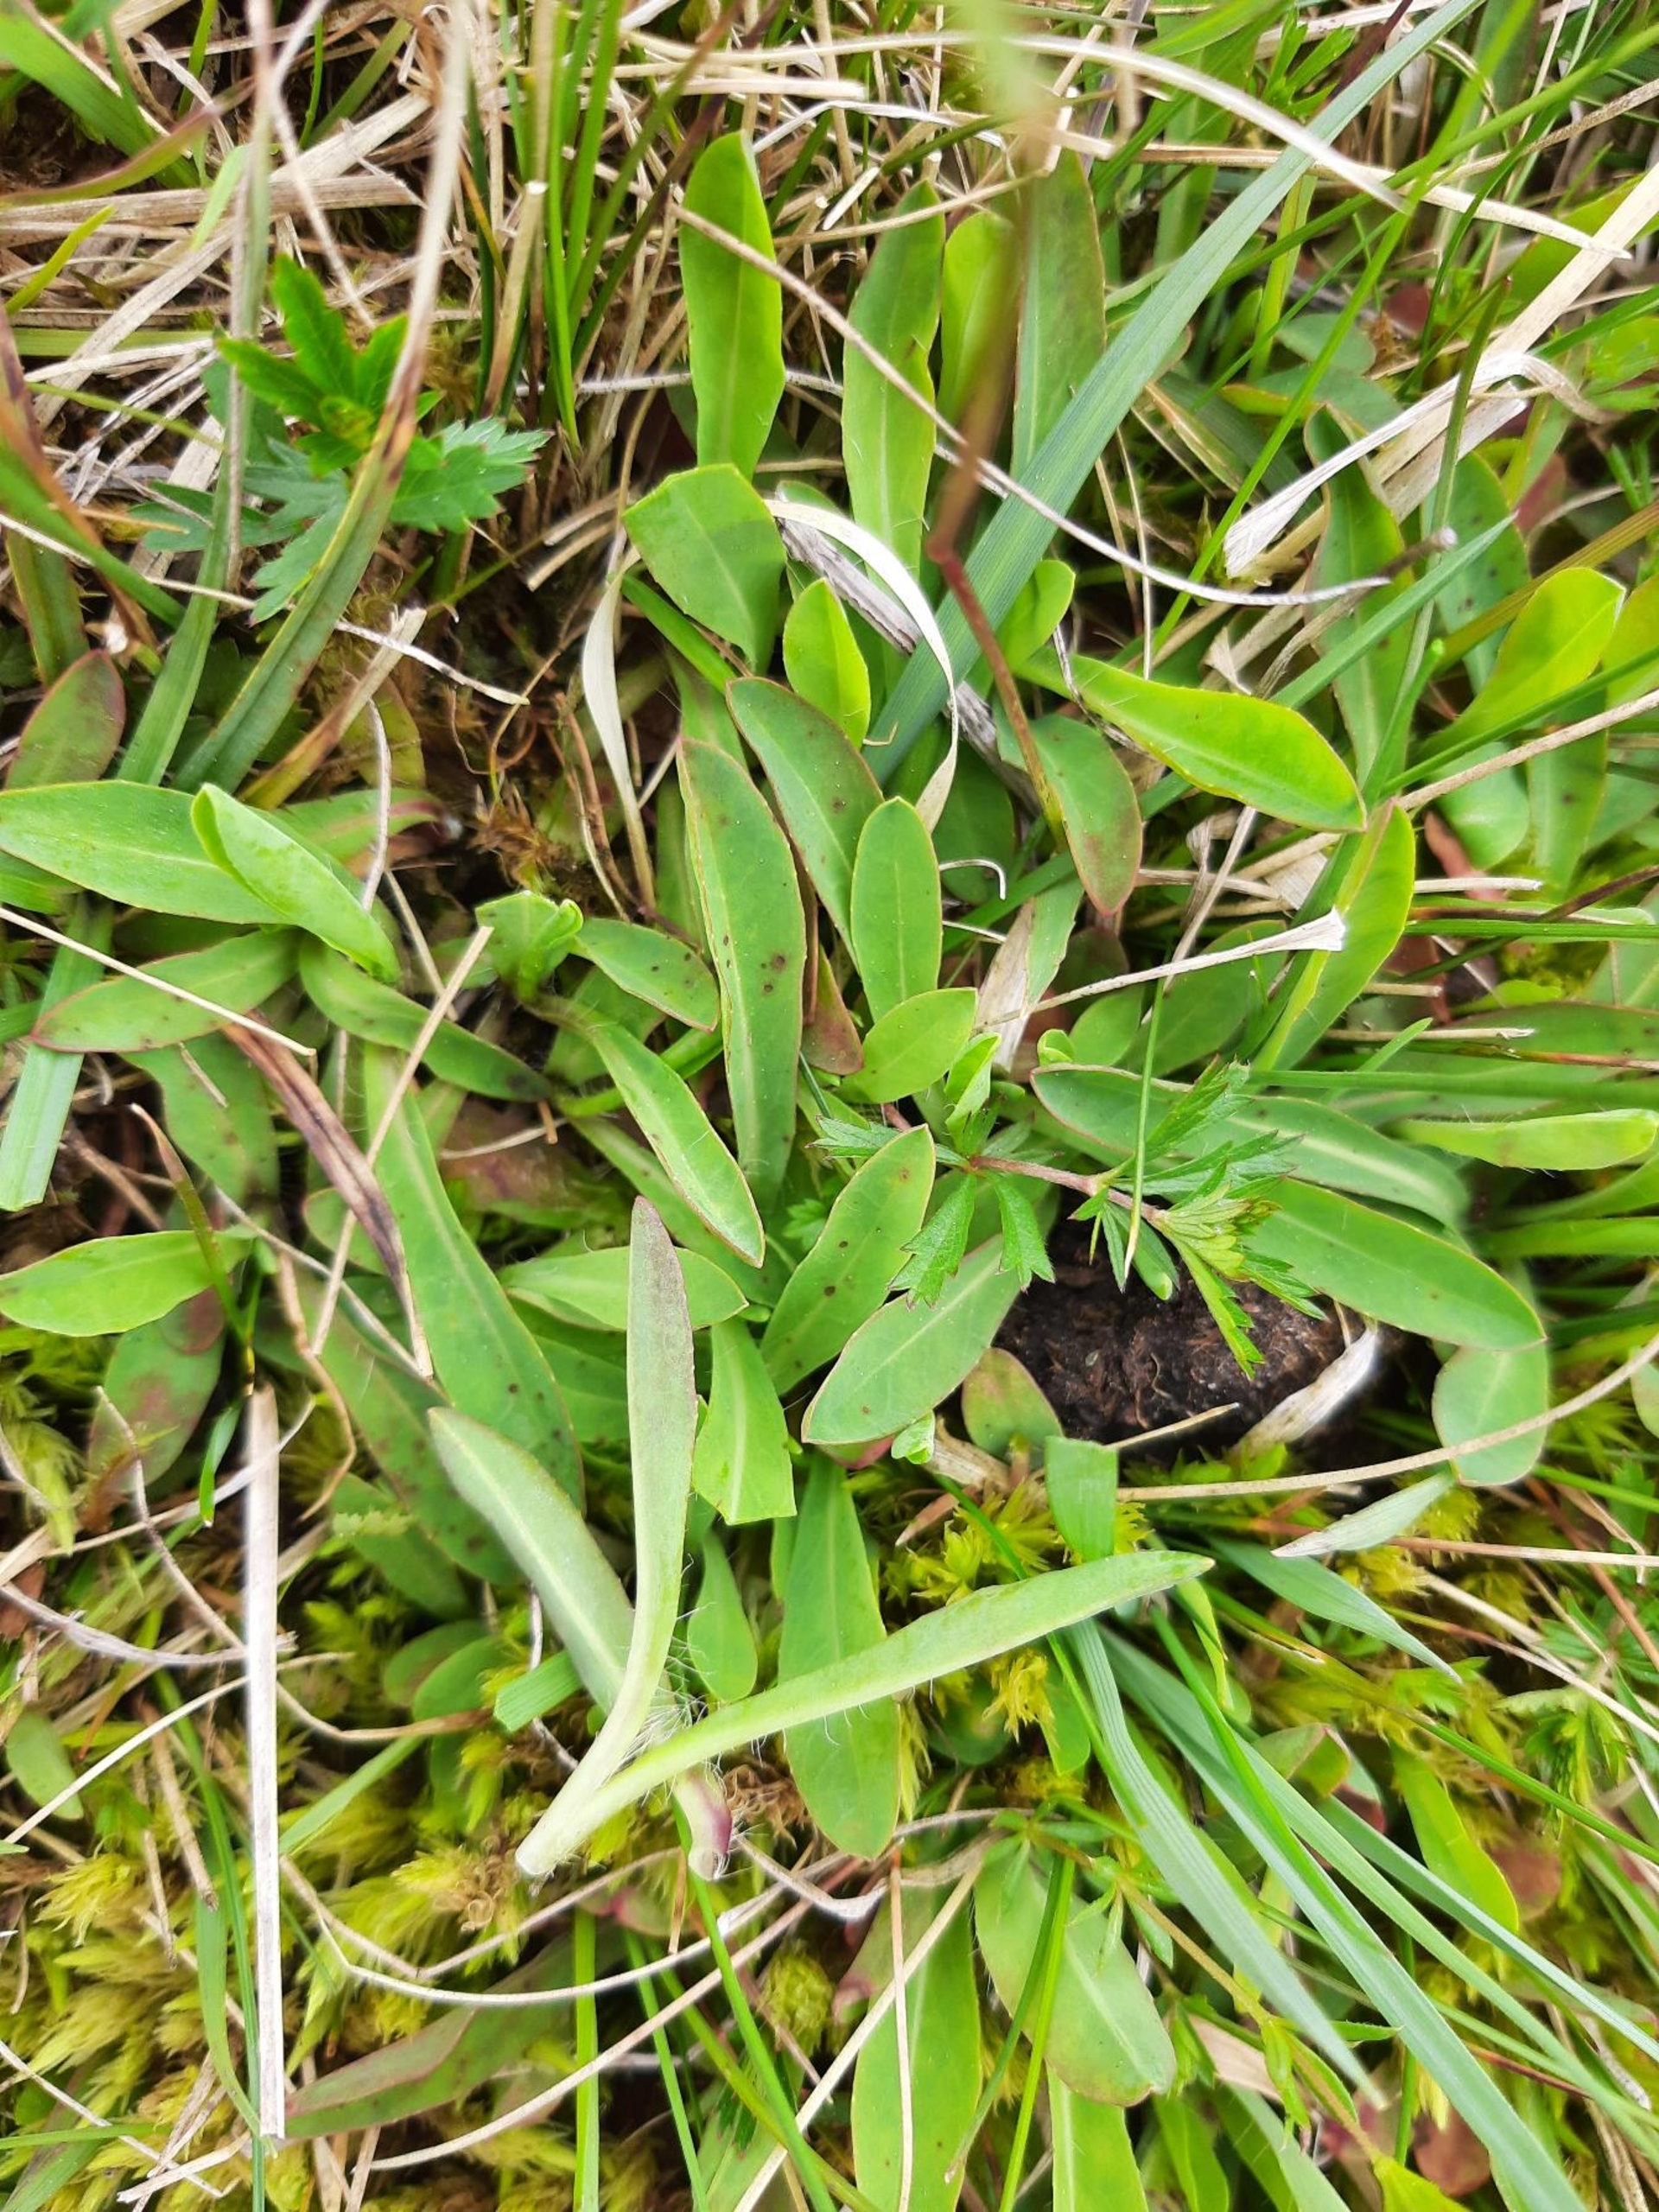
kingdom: Plantae
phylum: Tracheophyta
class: Magnoliopsida
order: Asterales
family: Asteraceae
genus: Pilosella
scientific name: Pilosella lactucella
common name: Lancetbladet høgeurt
